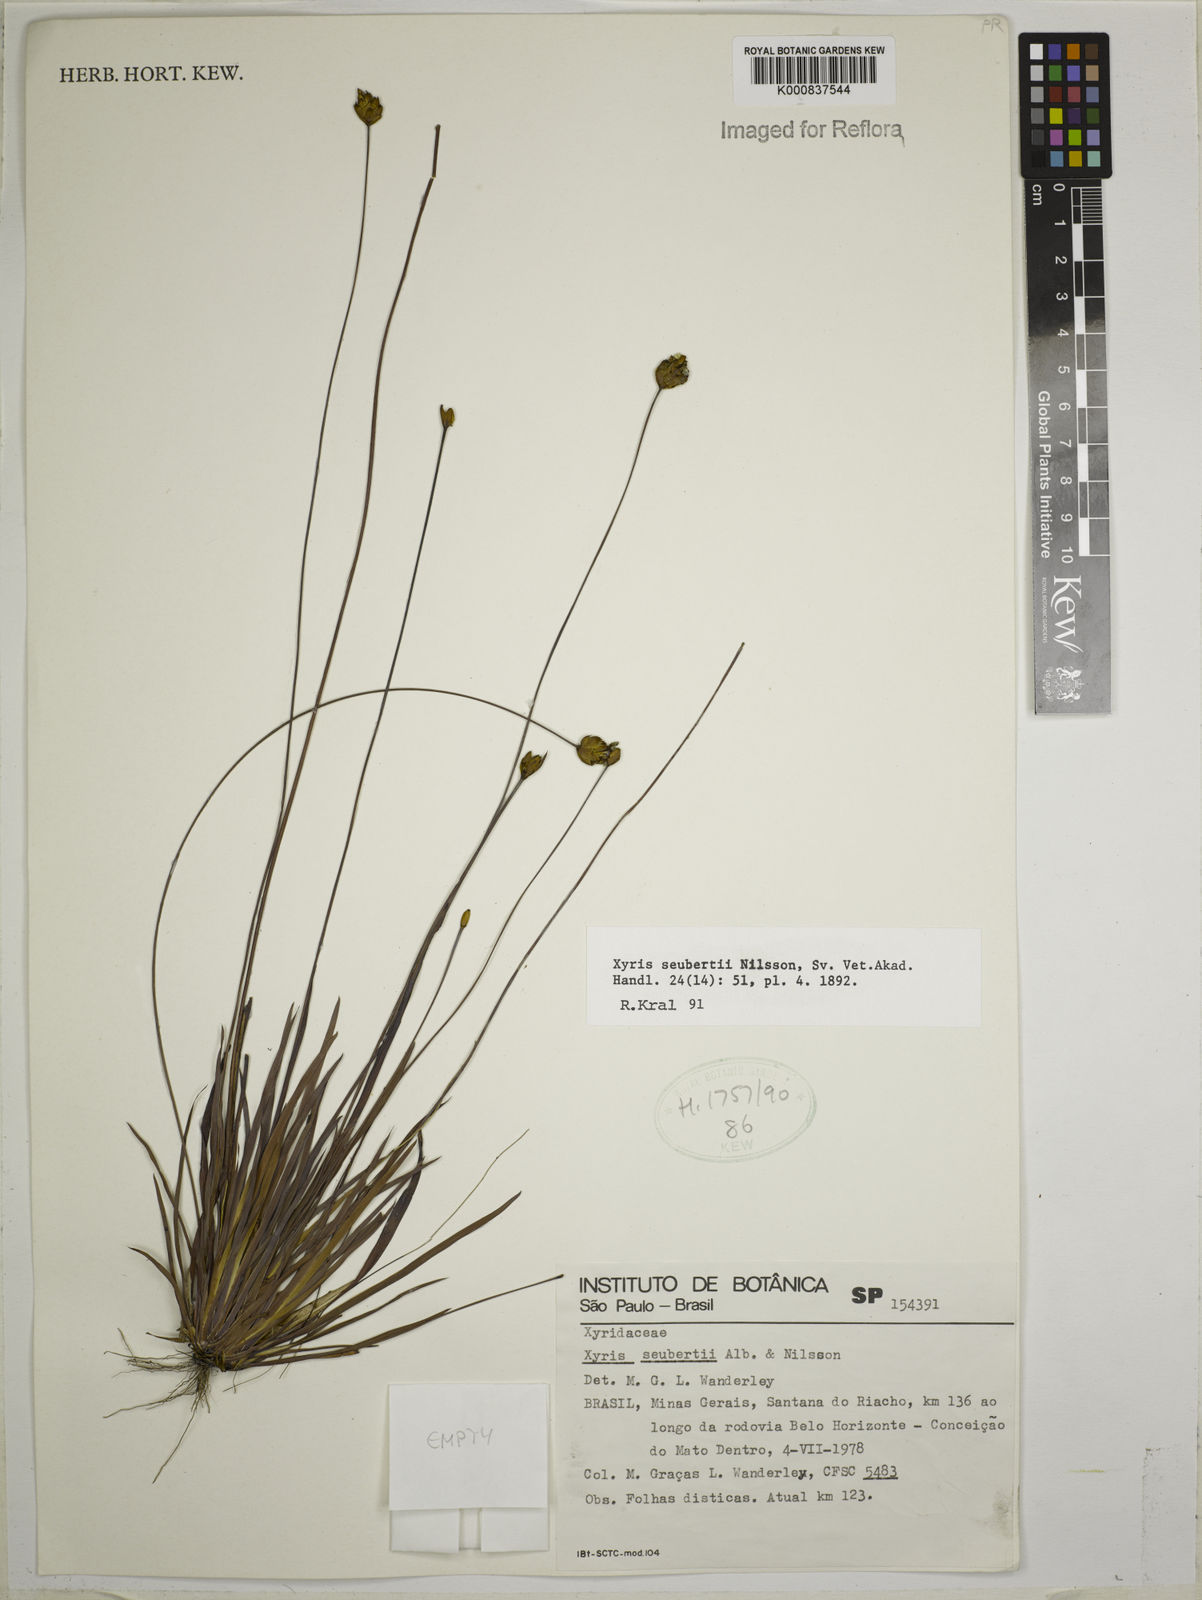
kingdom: Plantae
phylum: Tracheophyta
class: Liliopsida
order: Poales
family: Xyridaceae
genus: Xyris
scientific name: Xyris seubertii
